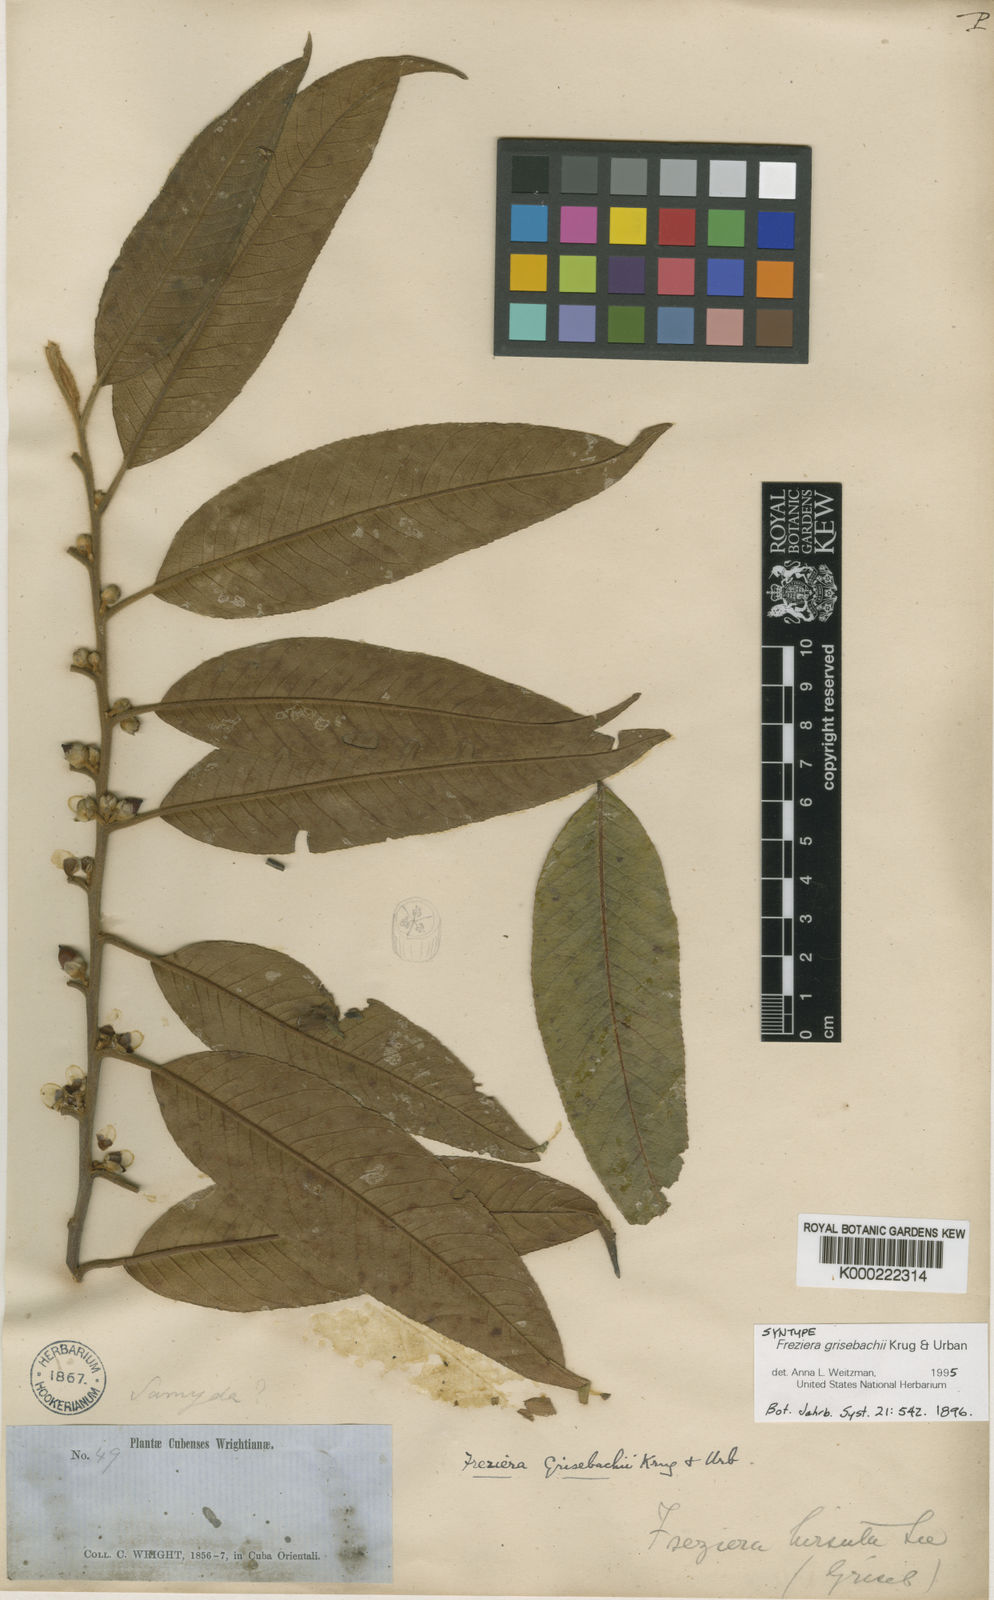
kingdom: Plantae
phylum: Tracheophyta
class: Magnoliopsida
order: Ericales
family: Pentaphylacaceae
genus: Freziera
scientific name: Freziera grisebachii
